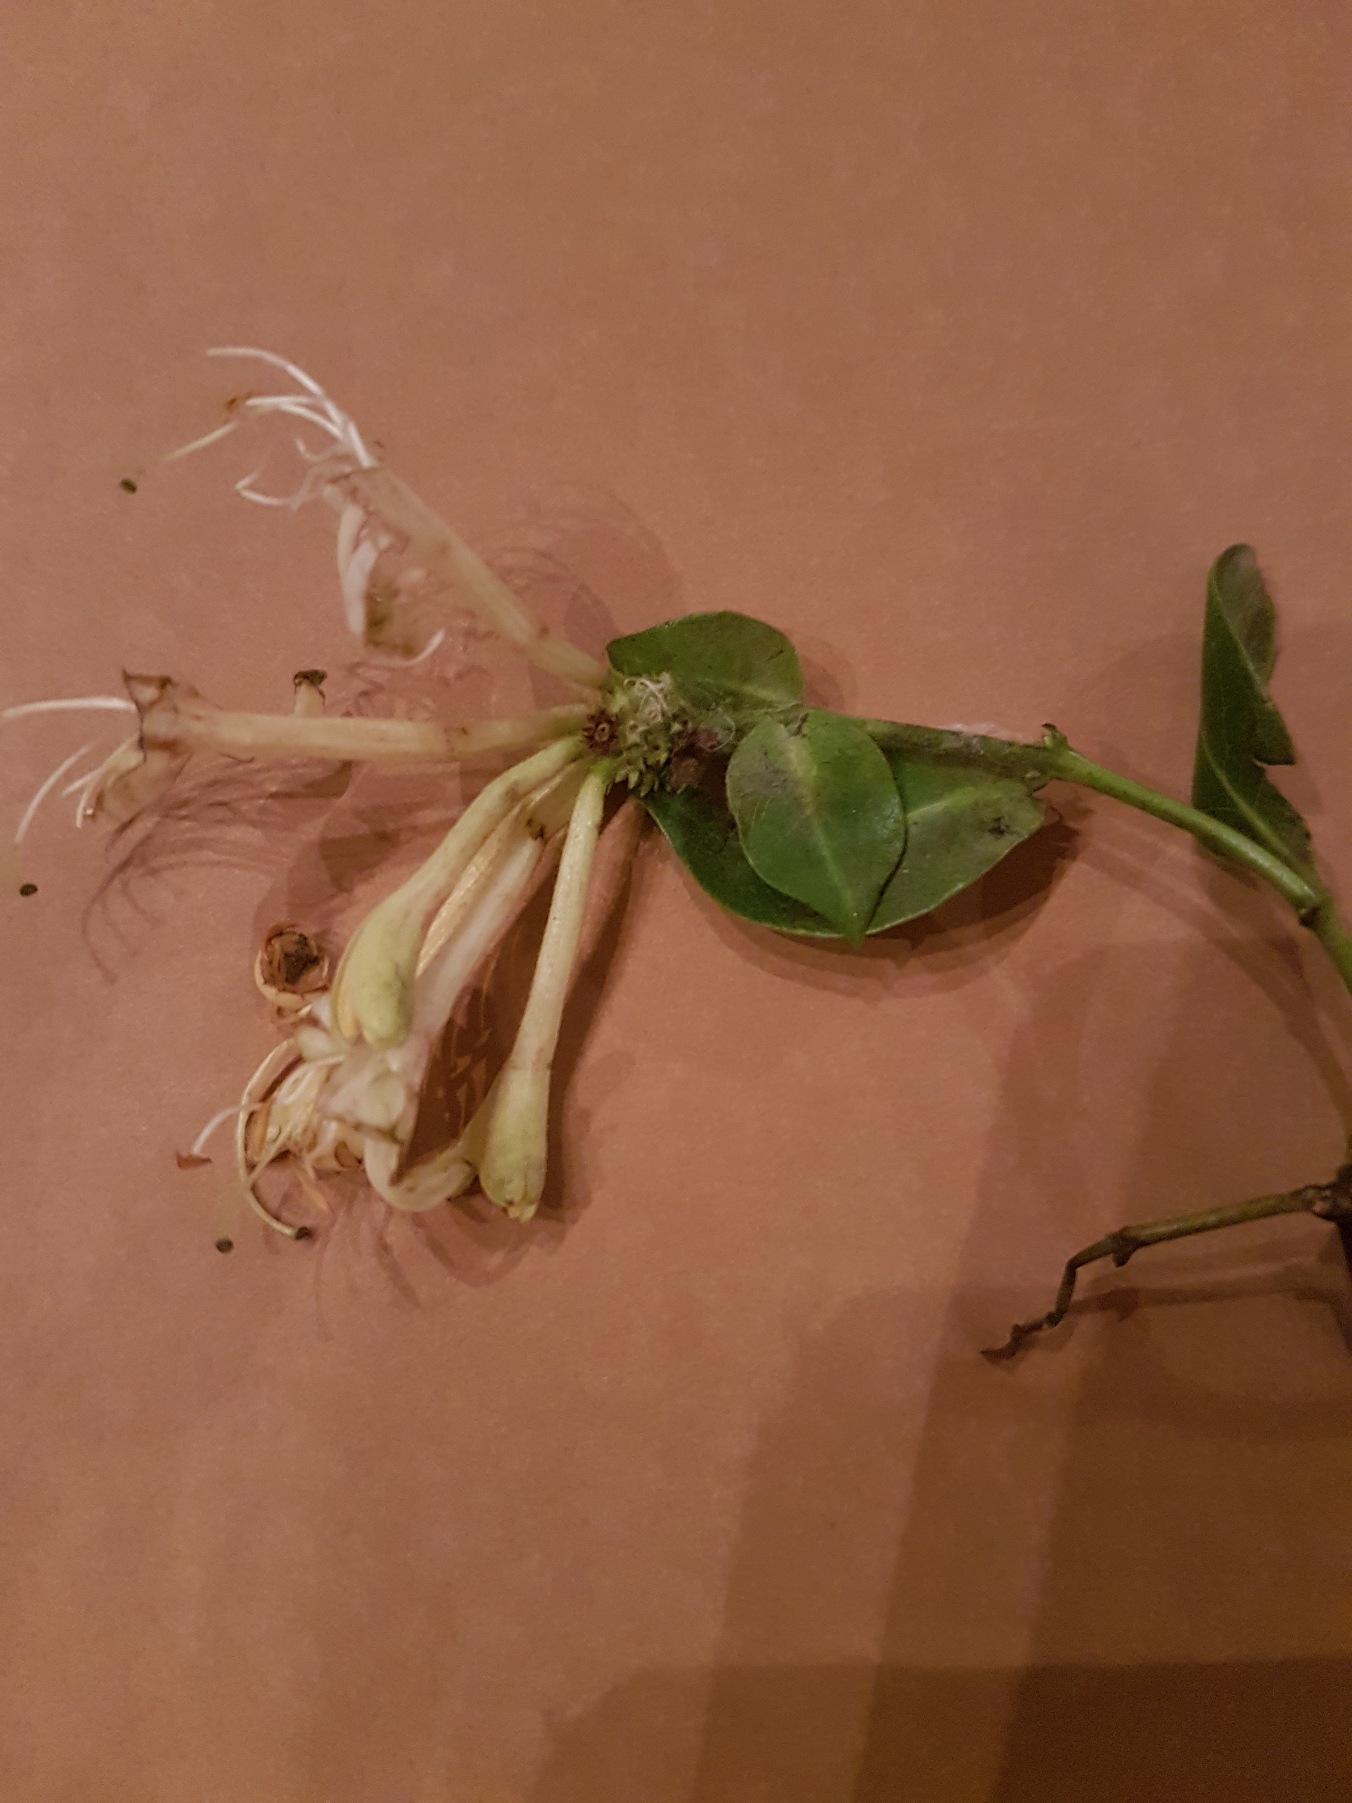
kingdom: Plantae
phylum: Tracheophyta
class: Magnoliopsida
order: Dipsacales
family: Caprifoliaceae
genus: Lonicera
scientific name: Lonicera periclymenum
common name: Almindelig gedeblad
